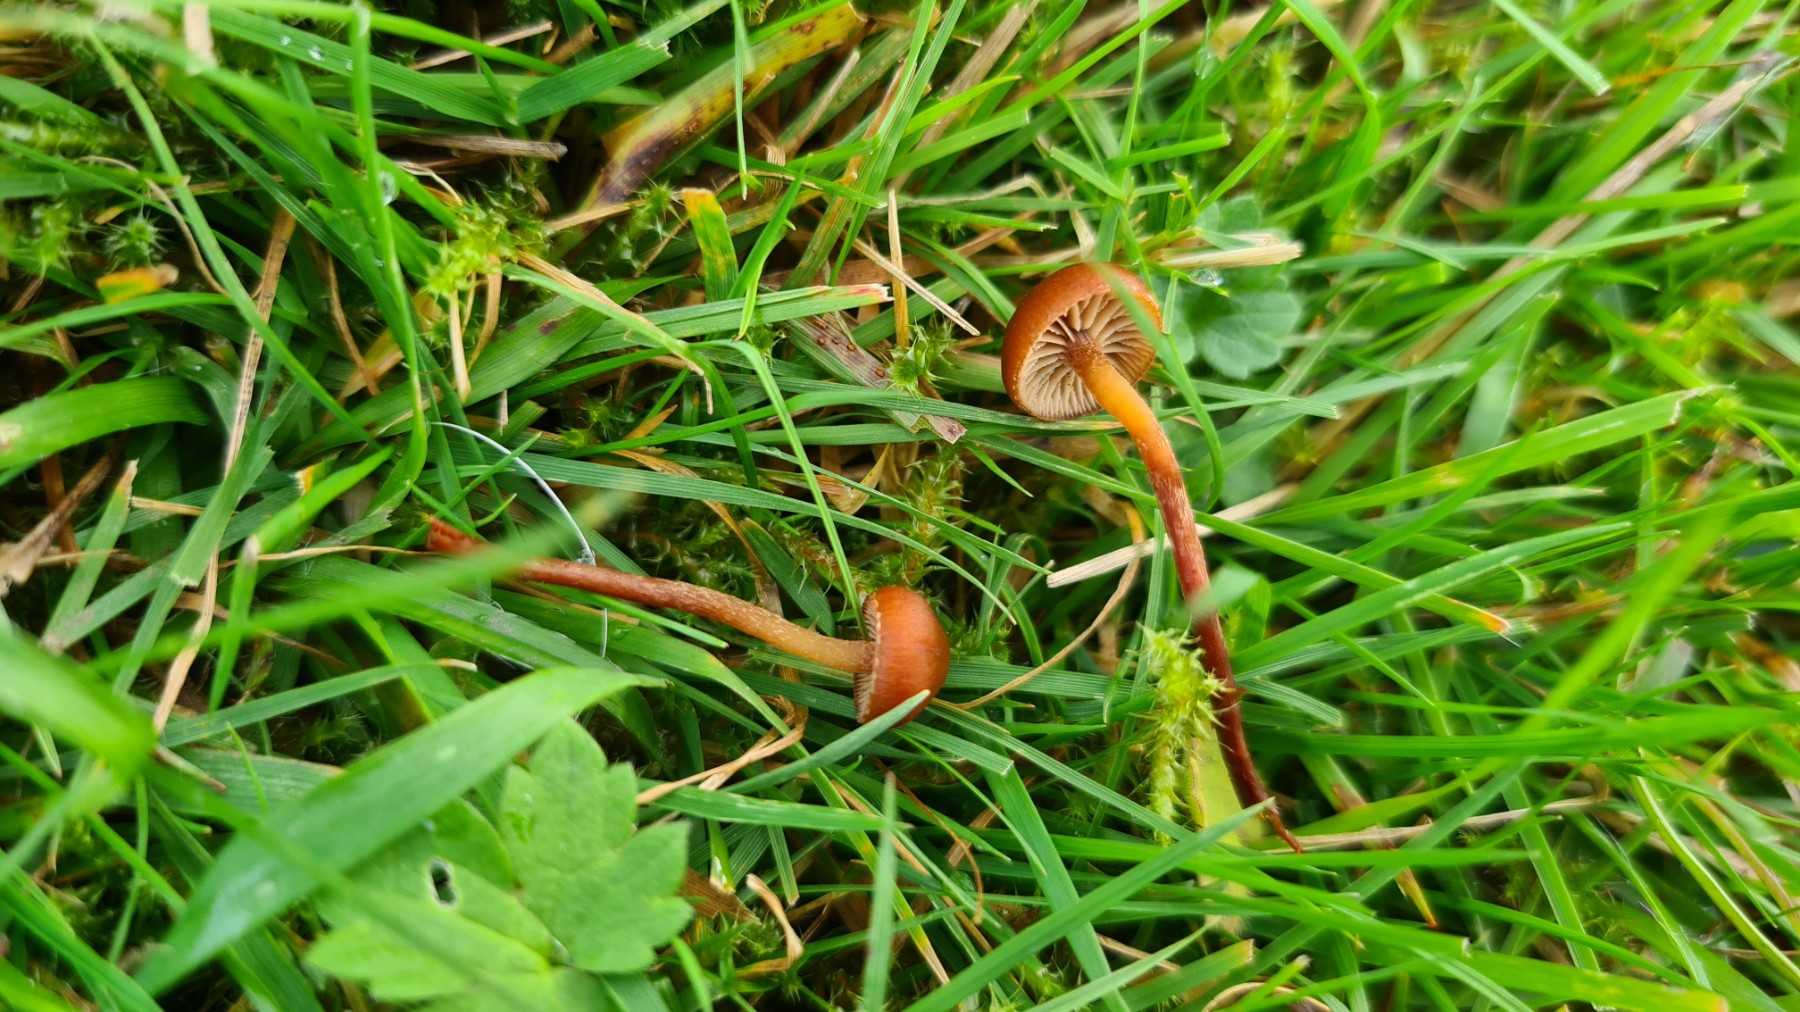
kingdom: Fungi
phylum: Basidiomycota
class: Agaricomycetes
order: Agaricales
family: Strophariaceae
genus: Deconica
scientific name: Deconica
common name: stråhat
